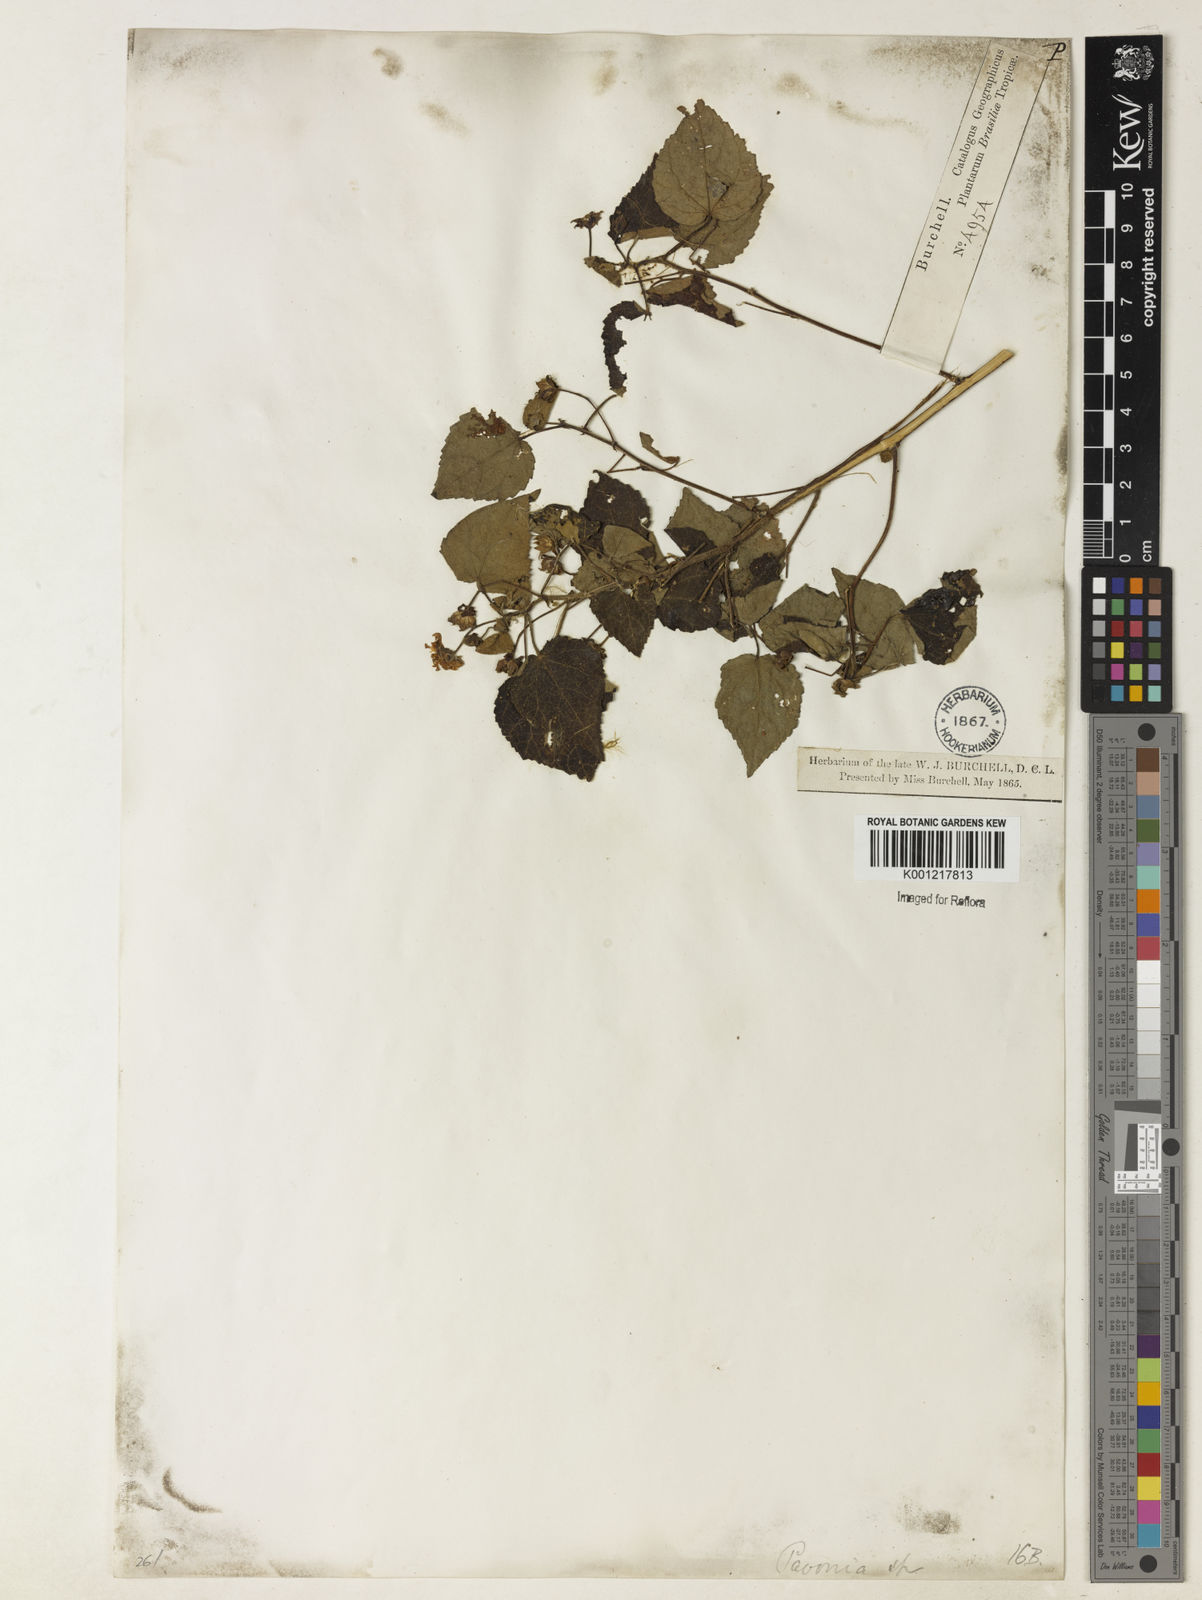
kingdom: Plantae
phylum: Tracheophyta
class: Magnoliopsida
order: Malvales
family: Malvaceae
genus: Pavonia
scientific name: Pavonia
